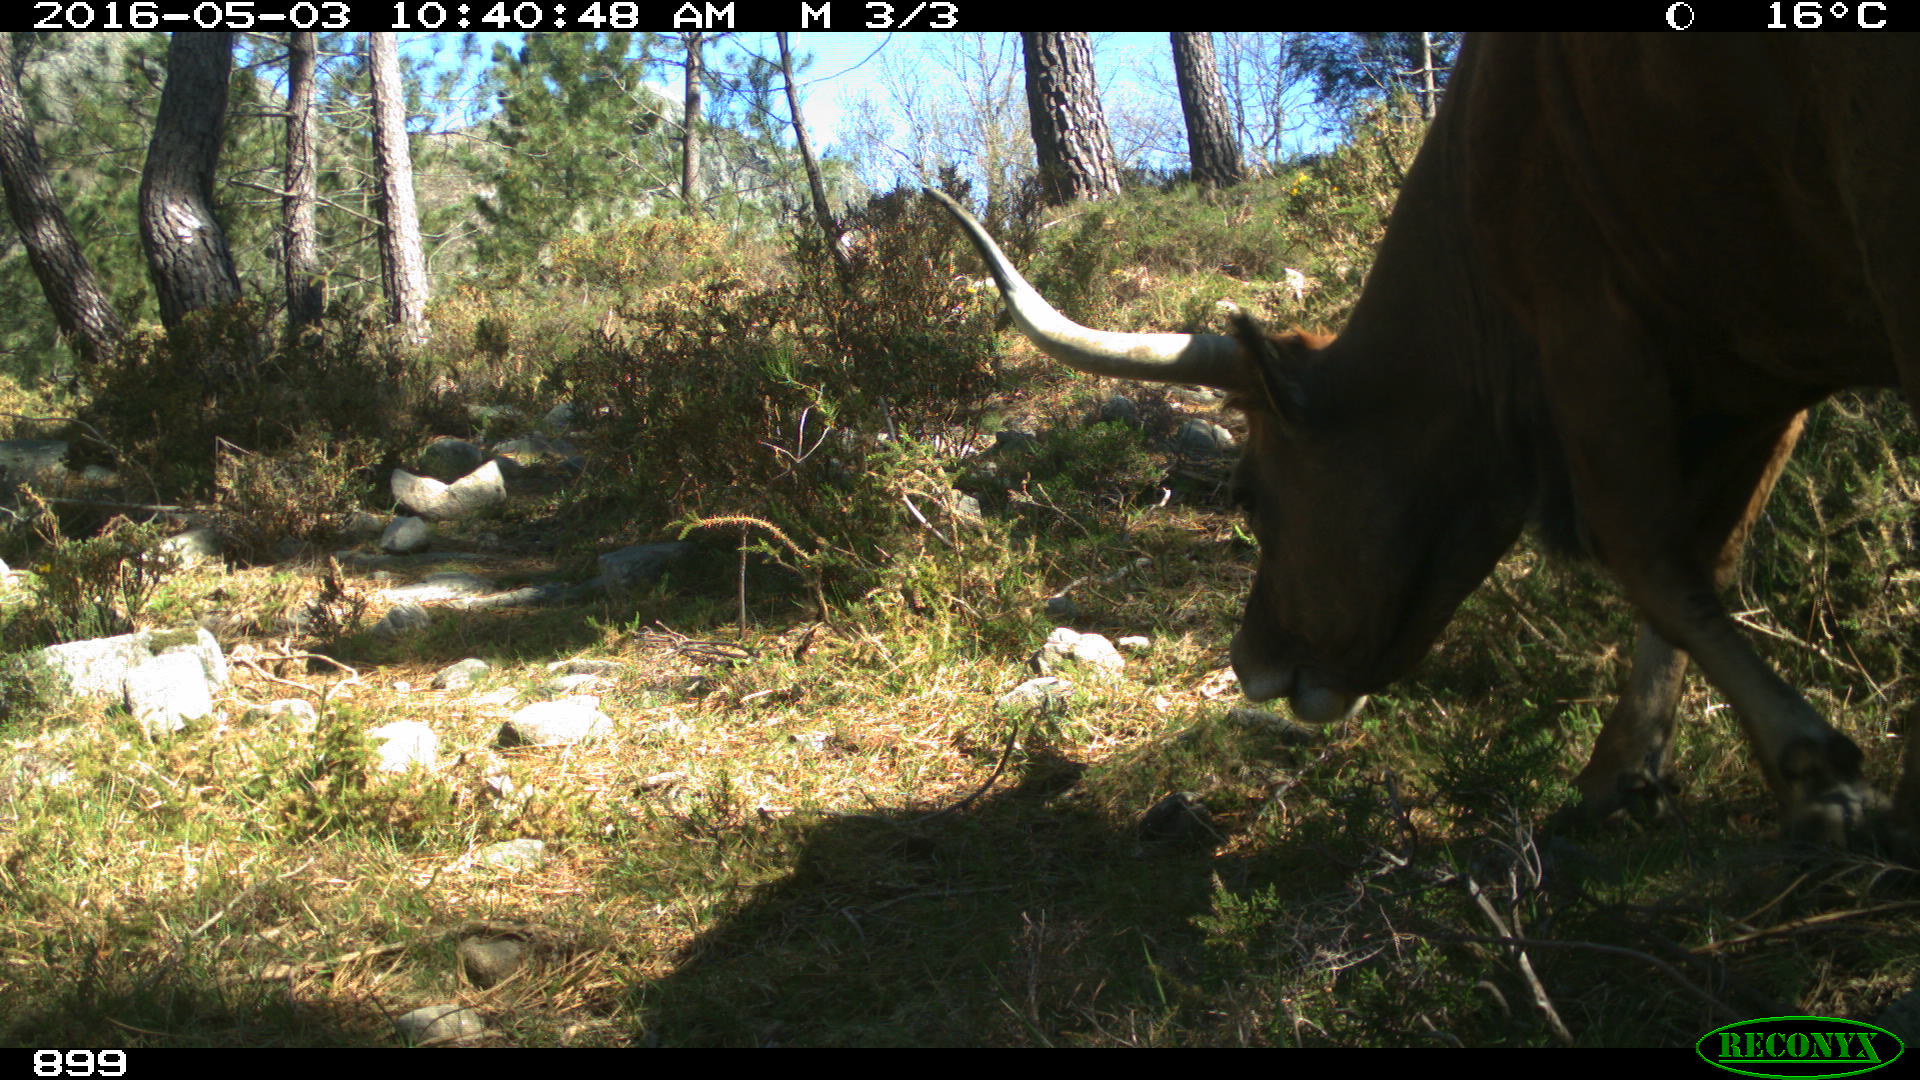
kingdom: Animalia
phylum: Chordata
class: Mammalia
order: Artiodactyla
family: Bovidae
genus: Bos
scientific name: Bos taurus
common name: Domesticated cattle
